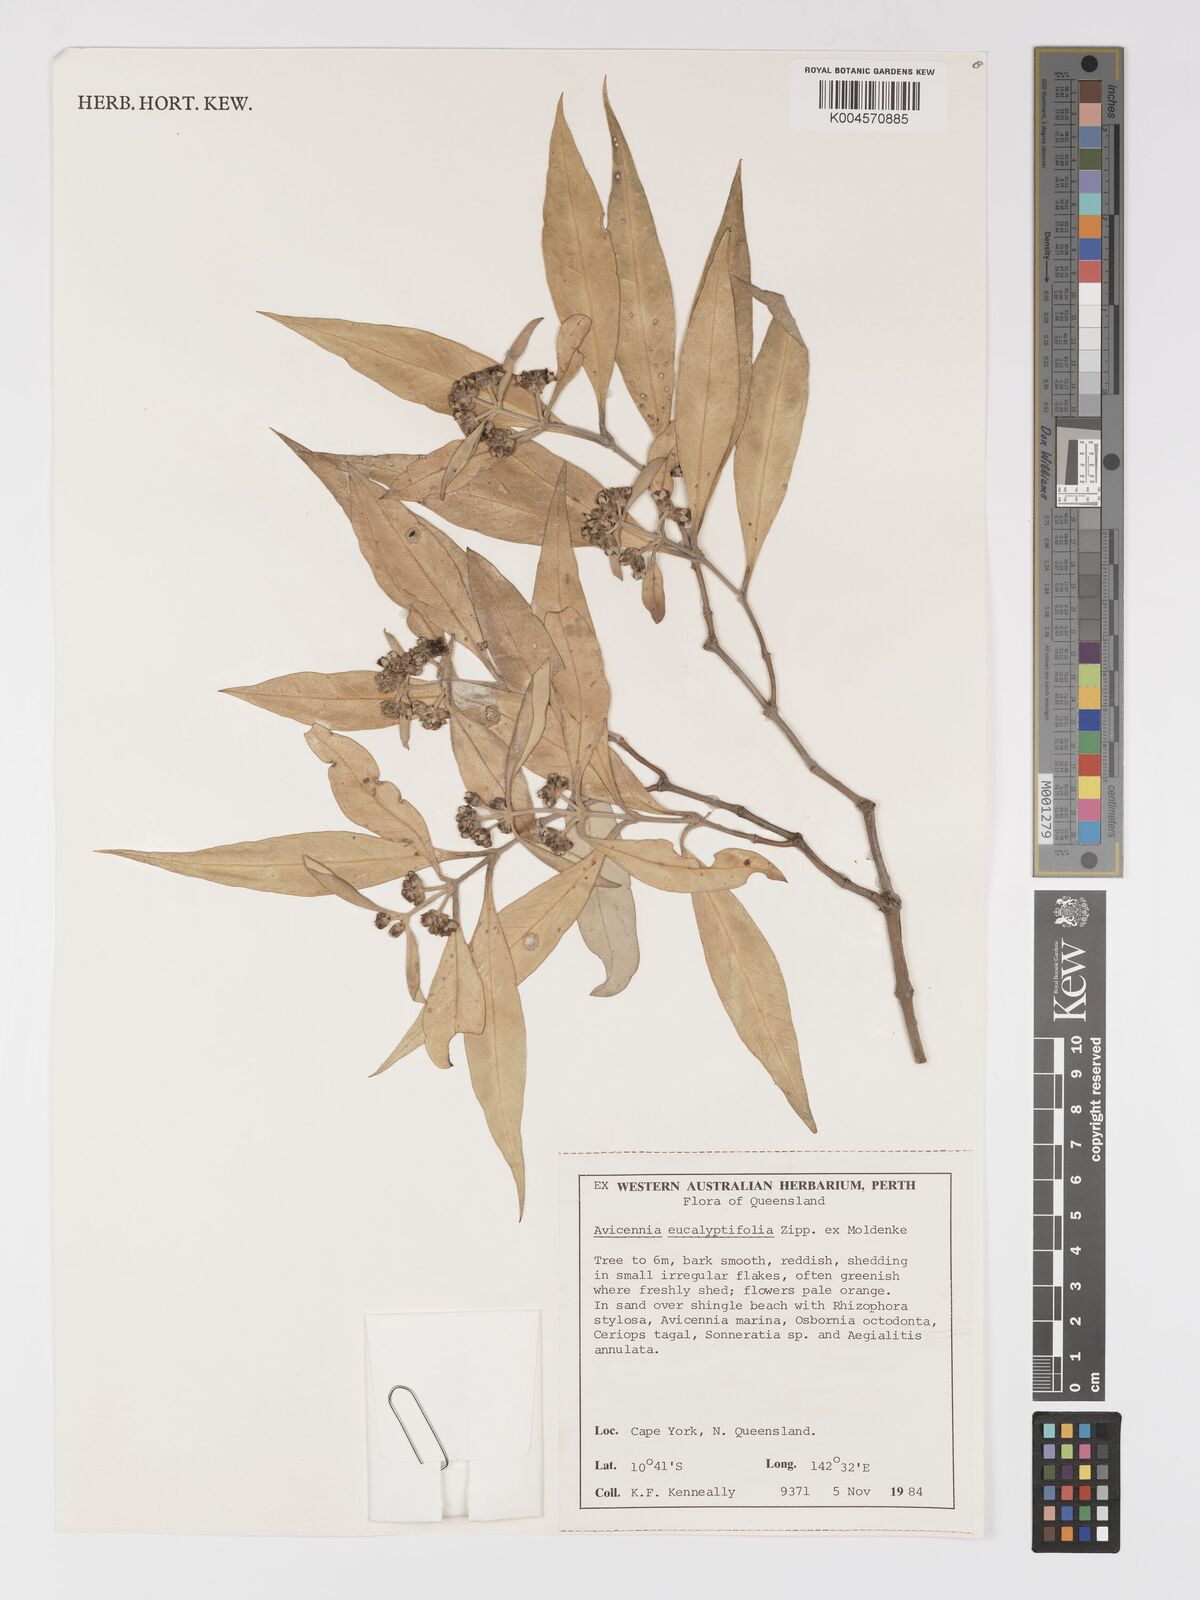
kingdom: Plantae
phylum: Tracheophyta
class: Magnoliopsida
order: Lamiales
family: Acanthaceae
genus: Avicennia
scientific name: Avicennia marina
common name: Gray mangrove
